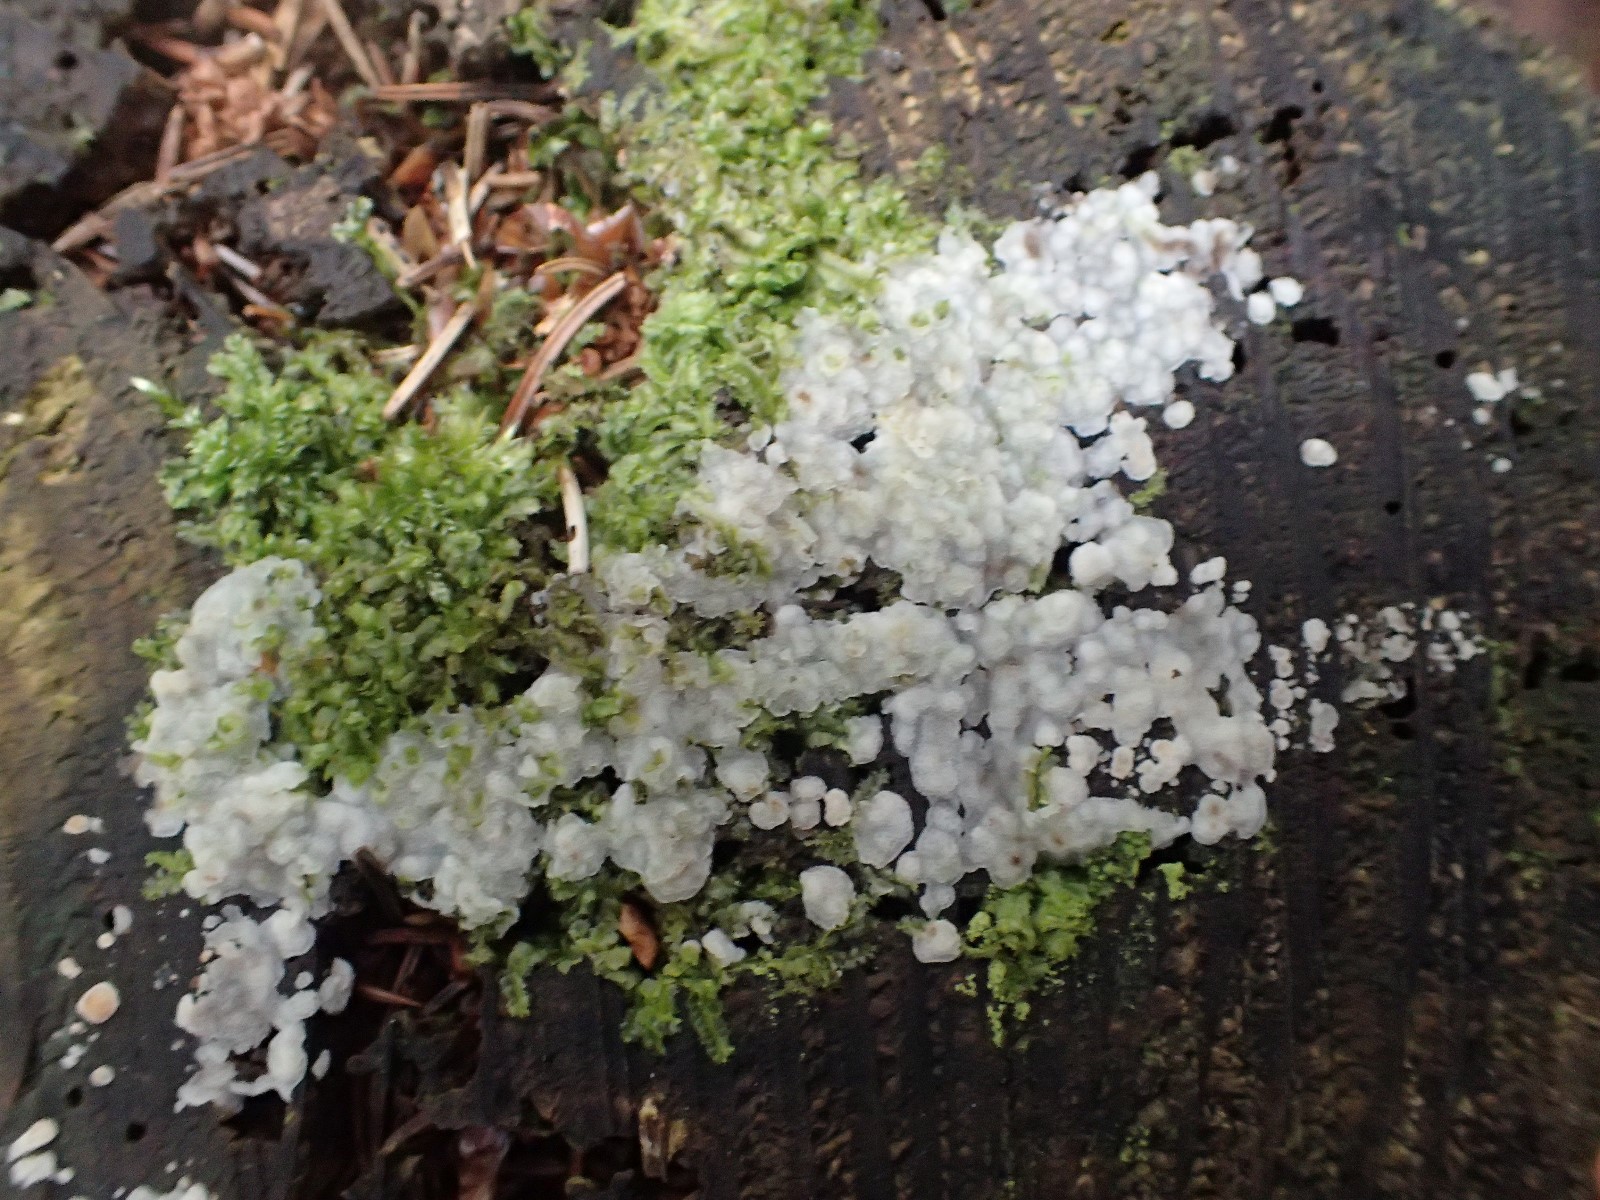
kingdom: Fungi
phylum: Basidiomycota
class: Agaricomycetes
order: Polyporales
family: Meruliaceae
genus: Physisporinus
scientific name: Physisporinus vitreus
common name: mastesvamp
